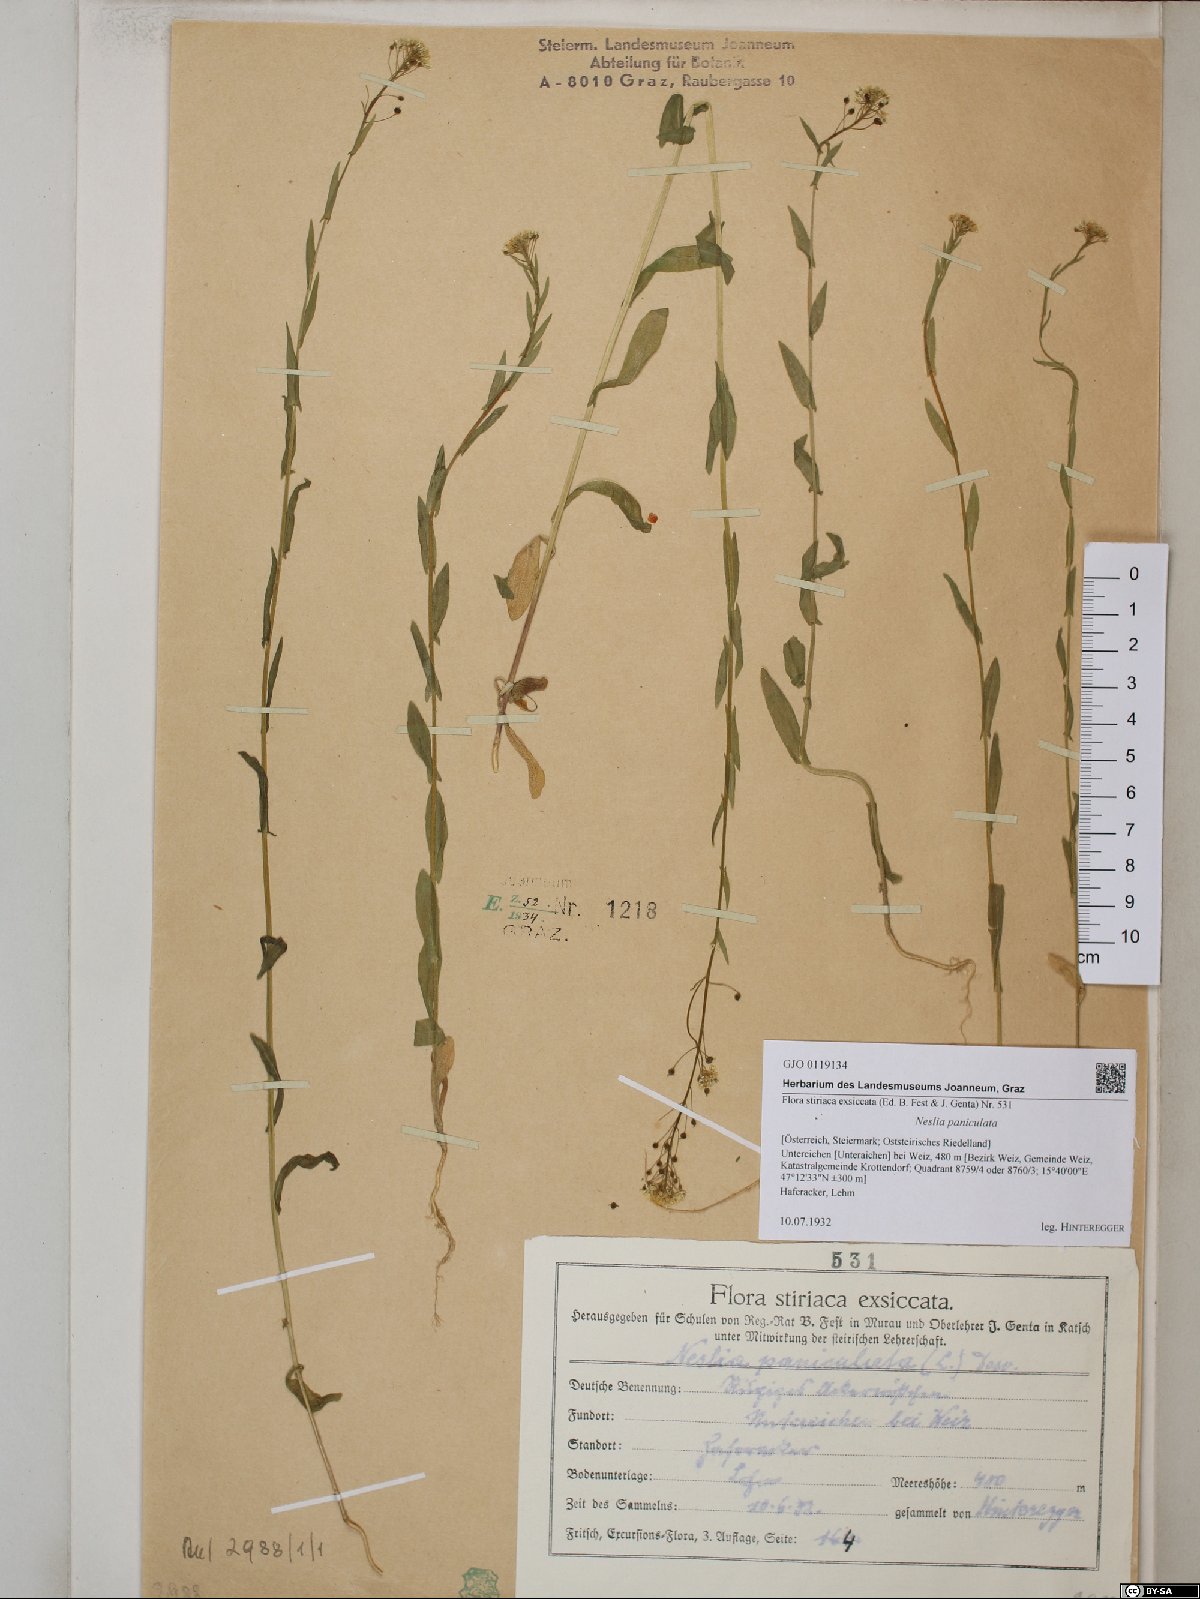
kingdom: Plantae
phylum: Tracheophyta
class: Magnoliopsida
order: Brassicales
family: Brassicaceae
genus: Neslia
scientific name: Neslia paniculata
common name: Ball mustard
